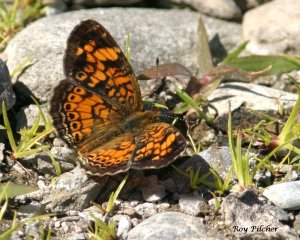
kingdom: Animalia
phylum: Arthropoda
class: Insecta
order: Lepidoptera
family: Nymphalidae
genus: Phyciodes
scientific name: Phyciodes tharos
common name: Pearl Crescent
